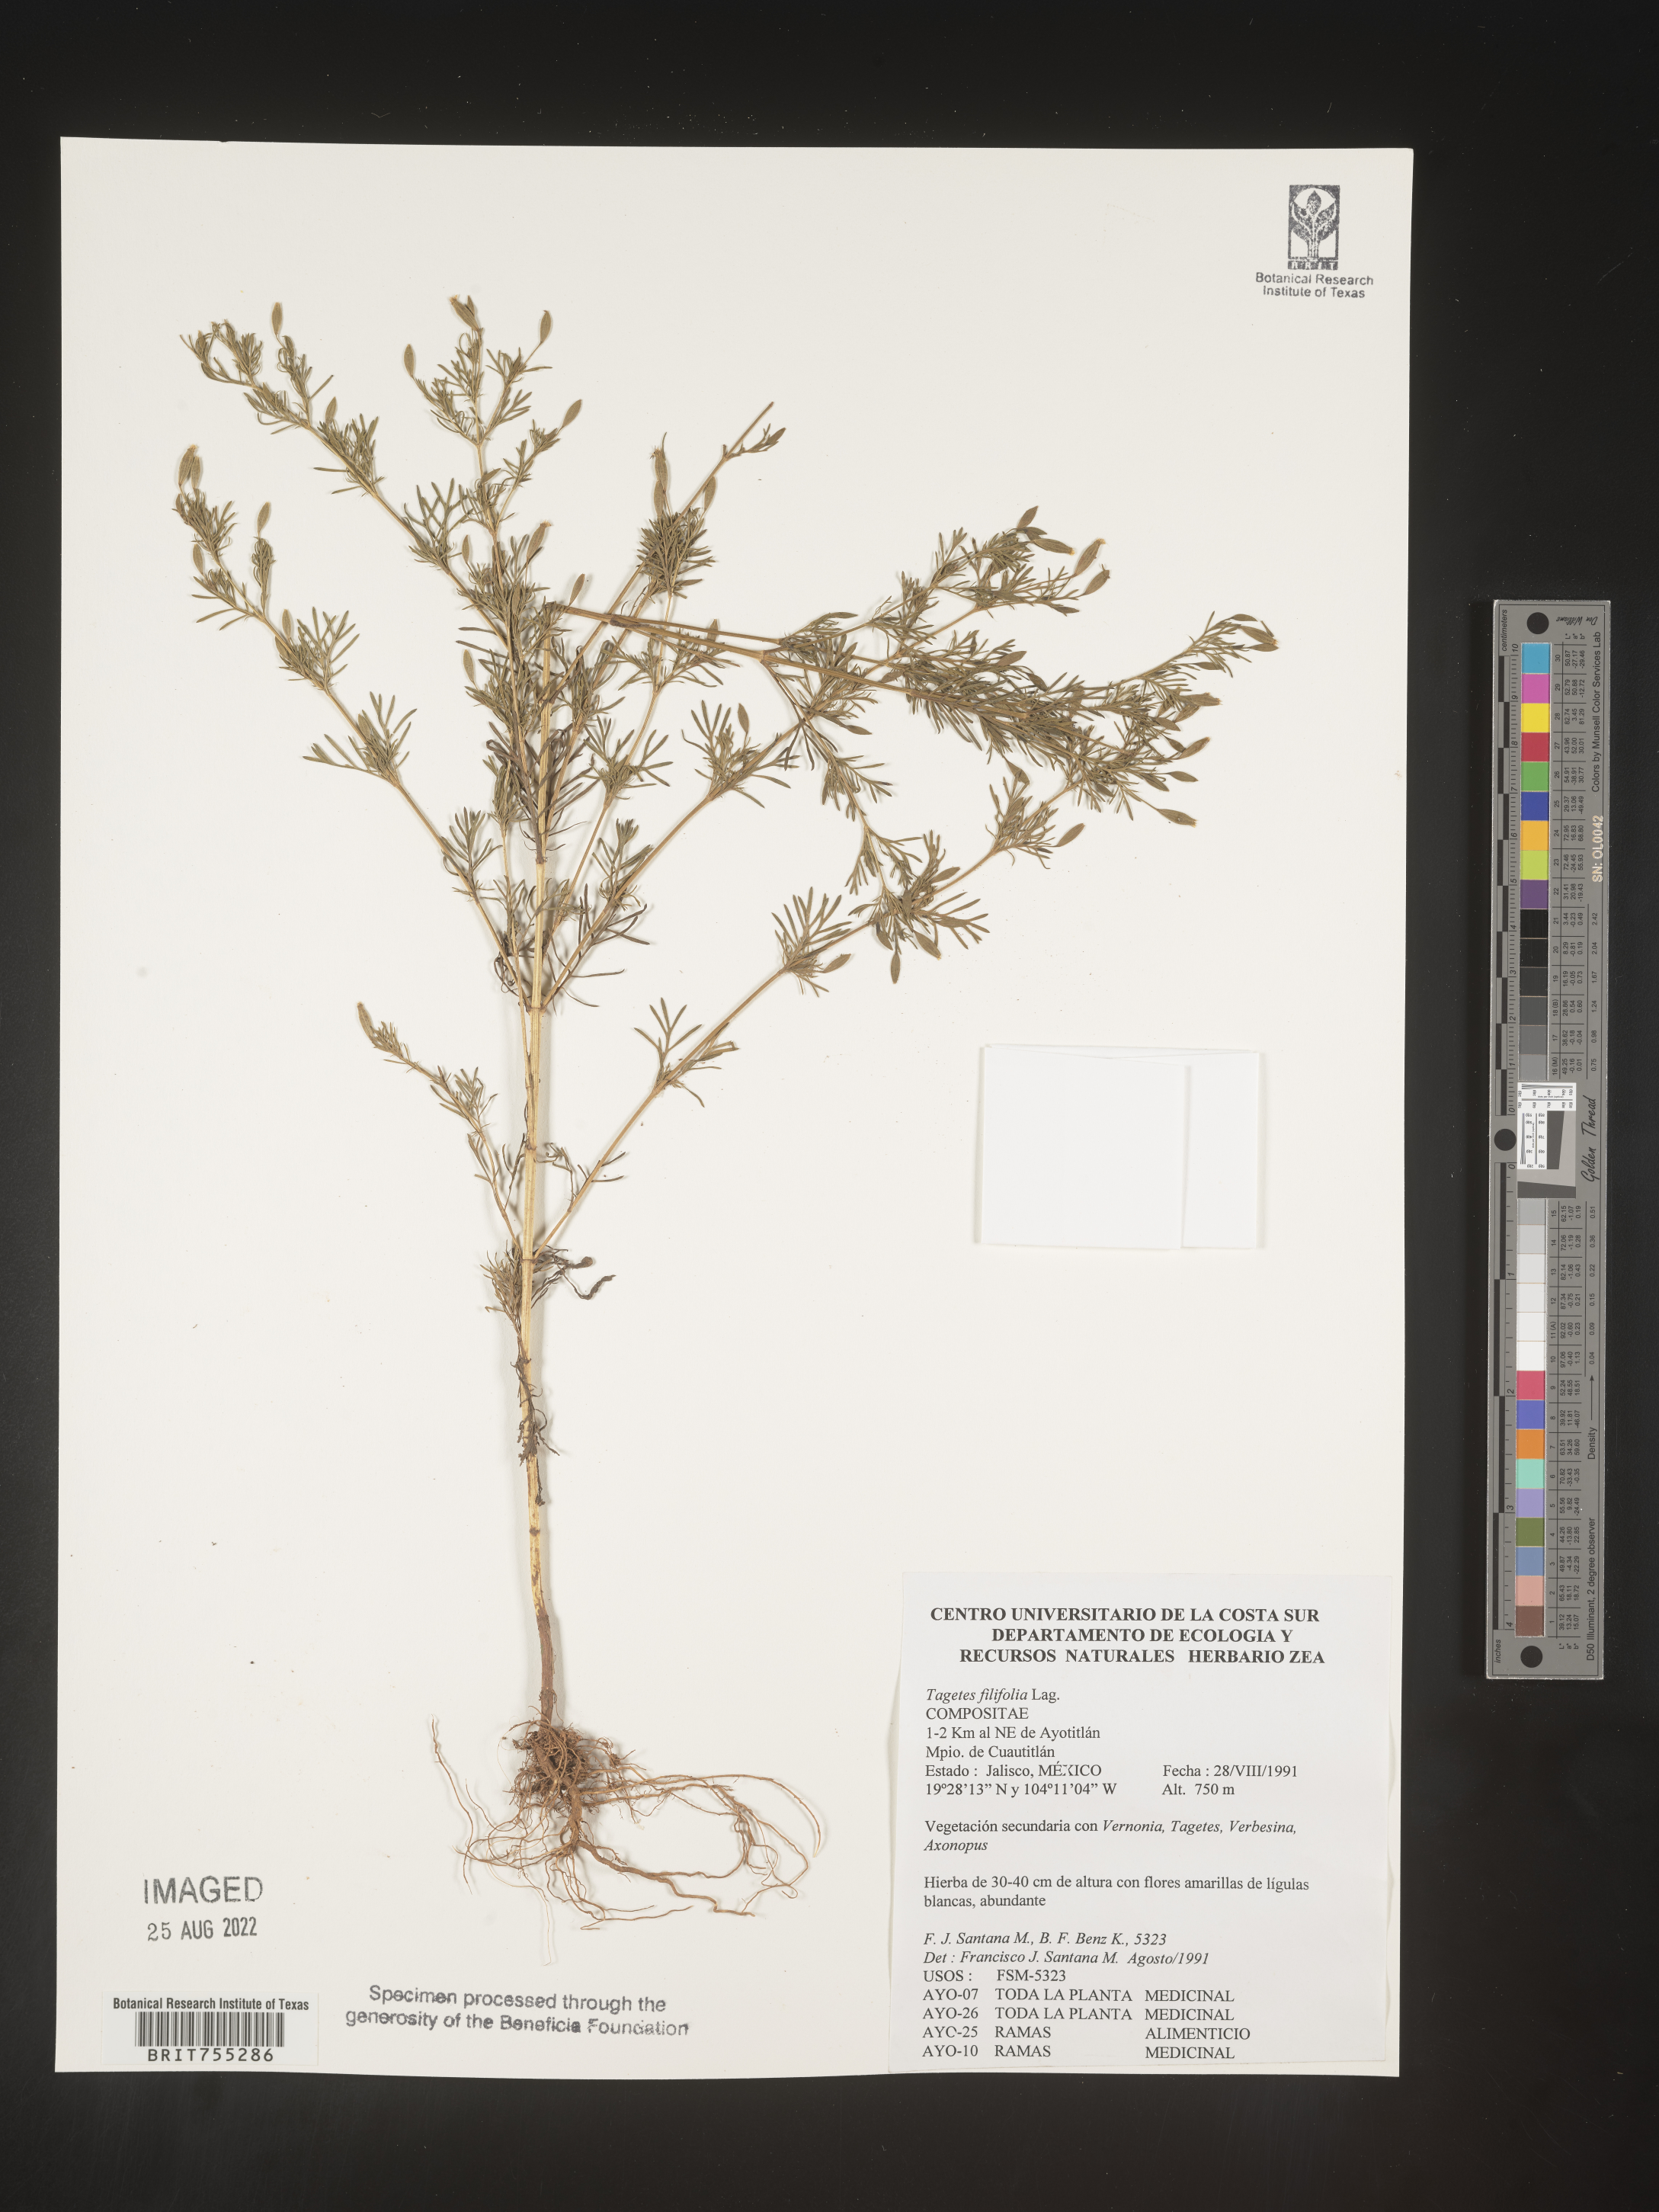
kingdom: Plantae
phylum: Tracheophyta
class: Magnoliopsida
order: Asterales
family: Asteraceae
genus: Tagetes
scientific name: Tagetes
